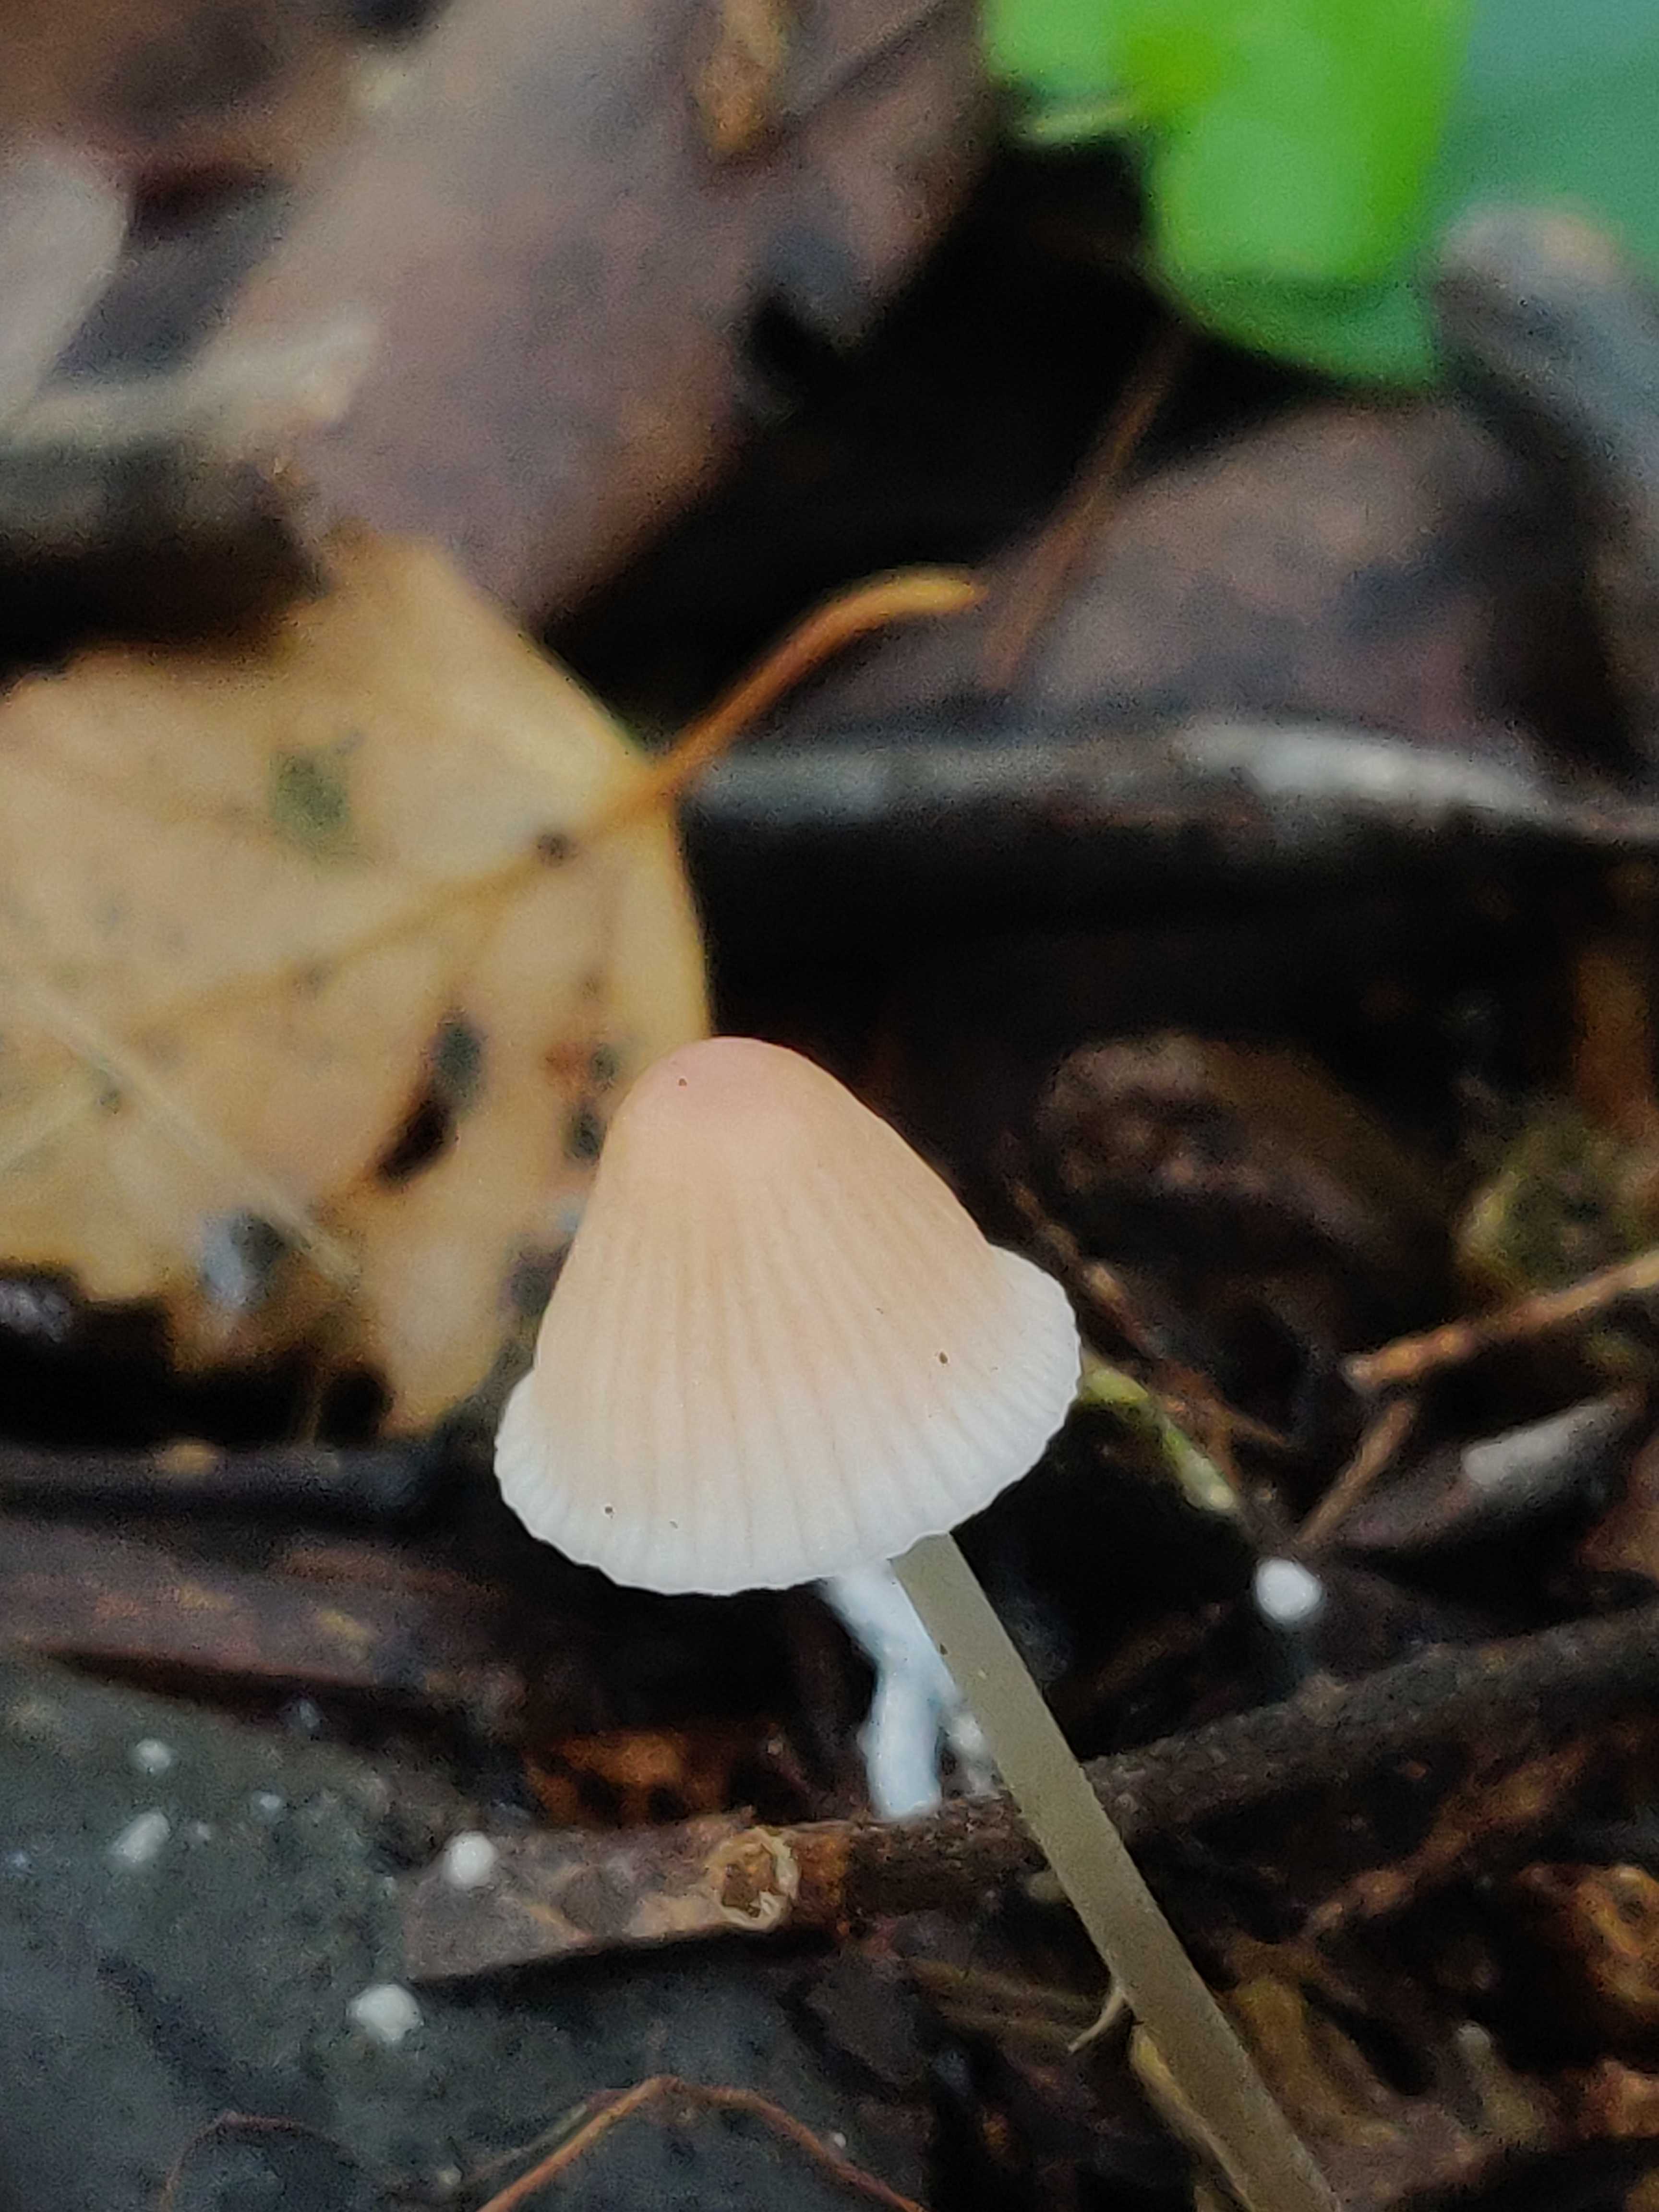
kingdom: Fungi
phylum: Basidiomycota
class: Agaricomycetes
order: Agaricales
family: Mycenaceae
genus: Mycena
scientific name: Mycena metata
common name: rødlig huesvamp
